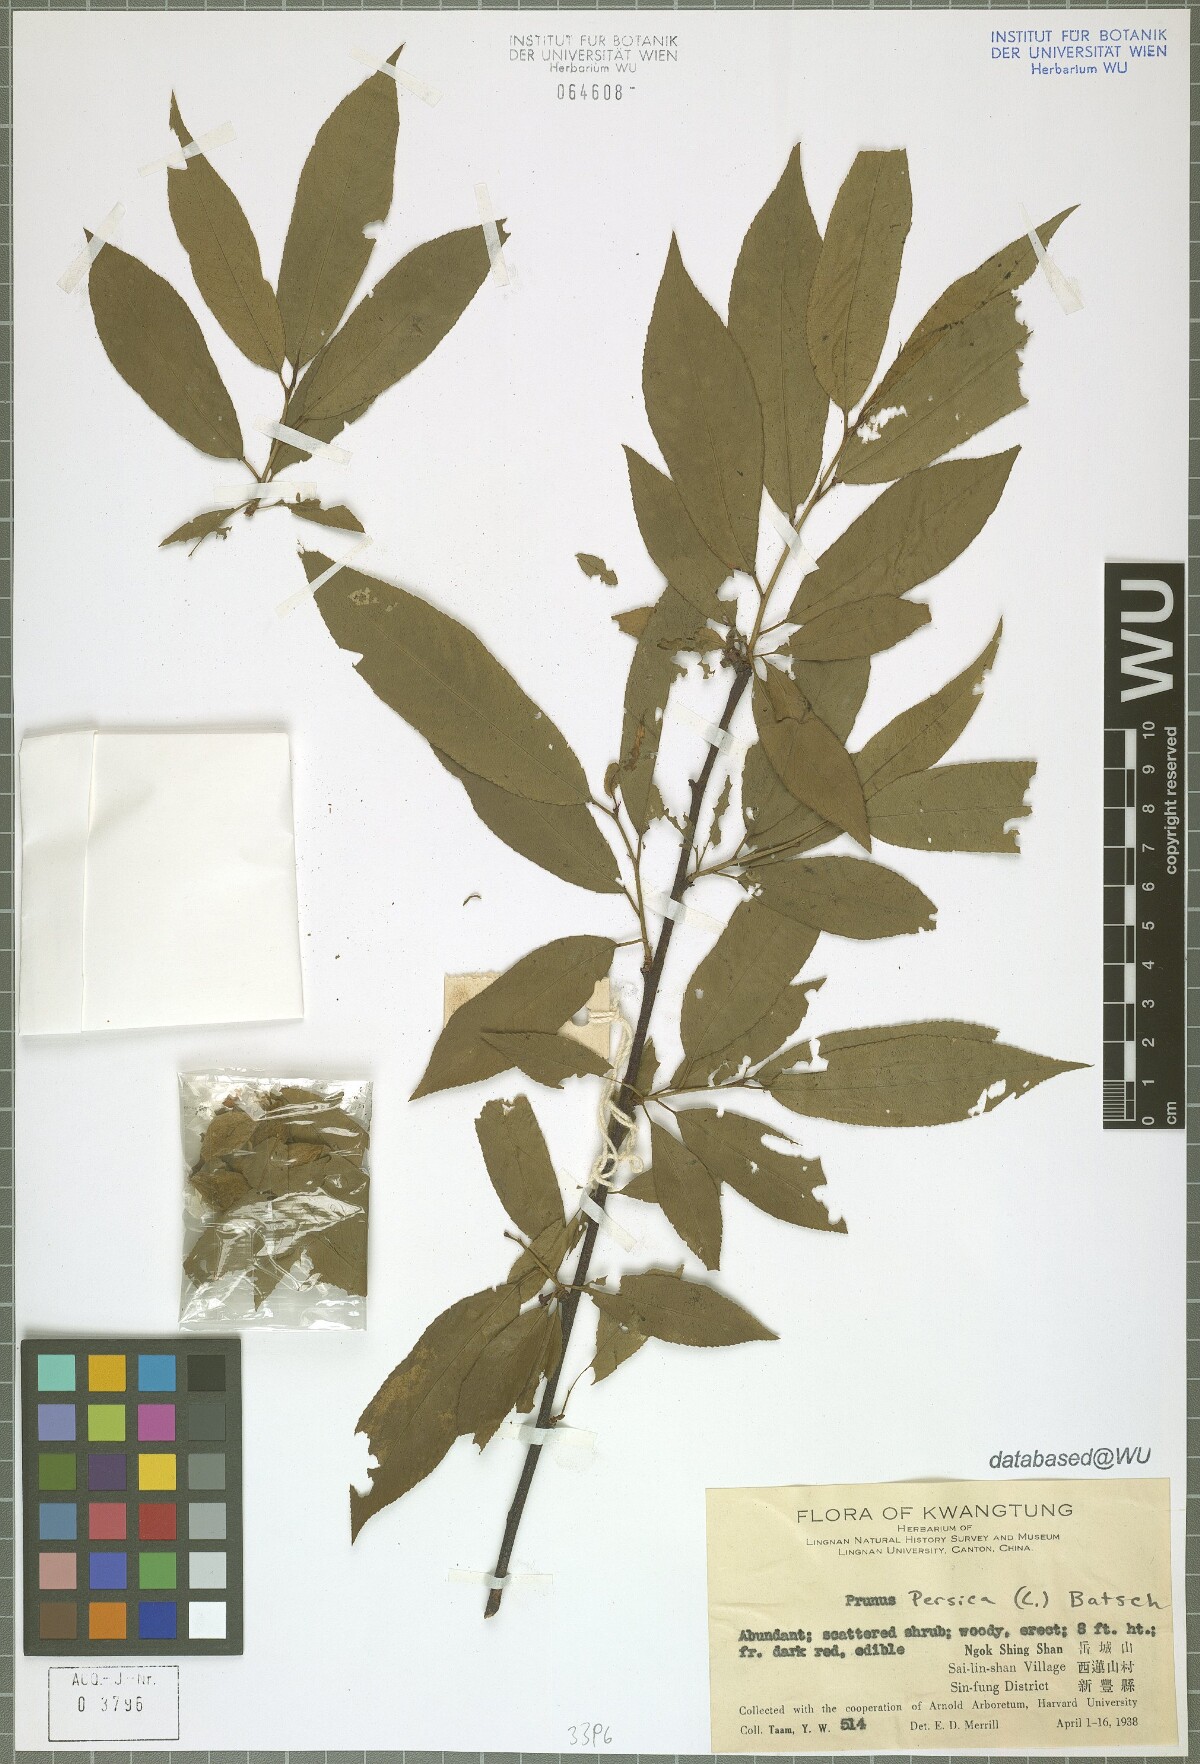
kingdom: Plantae
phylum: Tracheophyta
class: Magnoliopsida
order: Rosales
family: Rosaceae
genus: Prunus
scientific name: Prunus persica
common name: Peach
